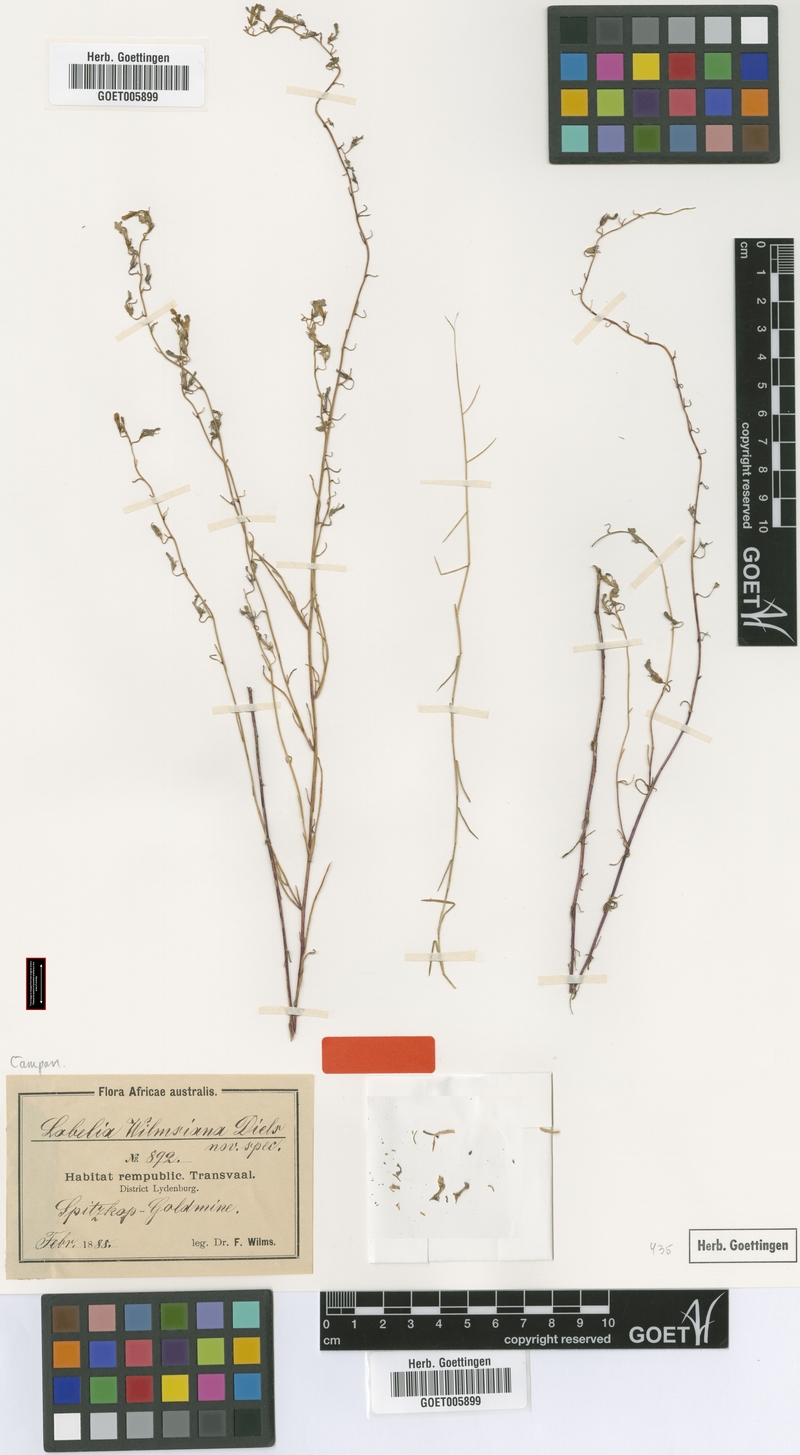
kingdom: Plantae
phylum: Tracheophyta
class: Magnoliopsida
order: Asterales
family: Campanulaceae
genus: Lobelia
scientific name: Lobelia wilmsiana
